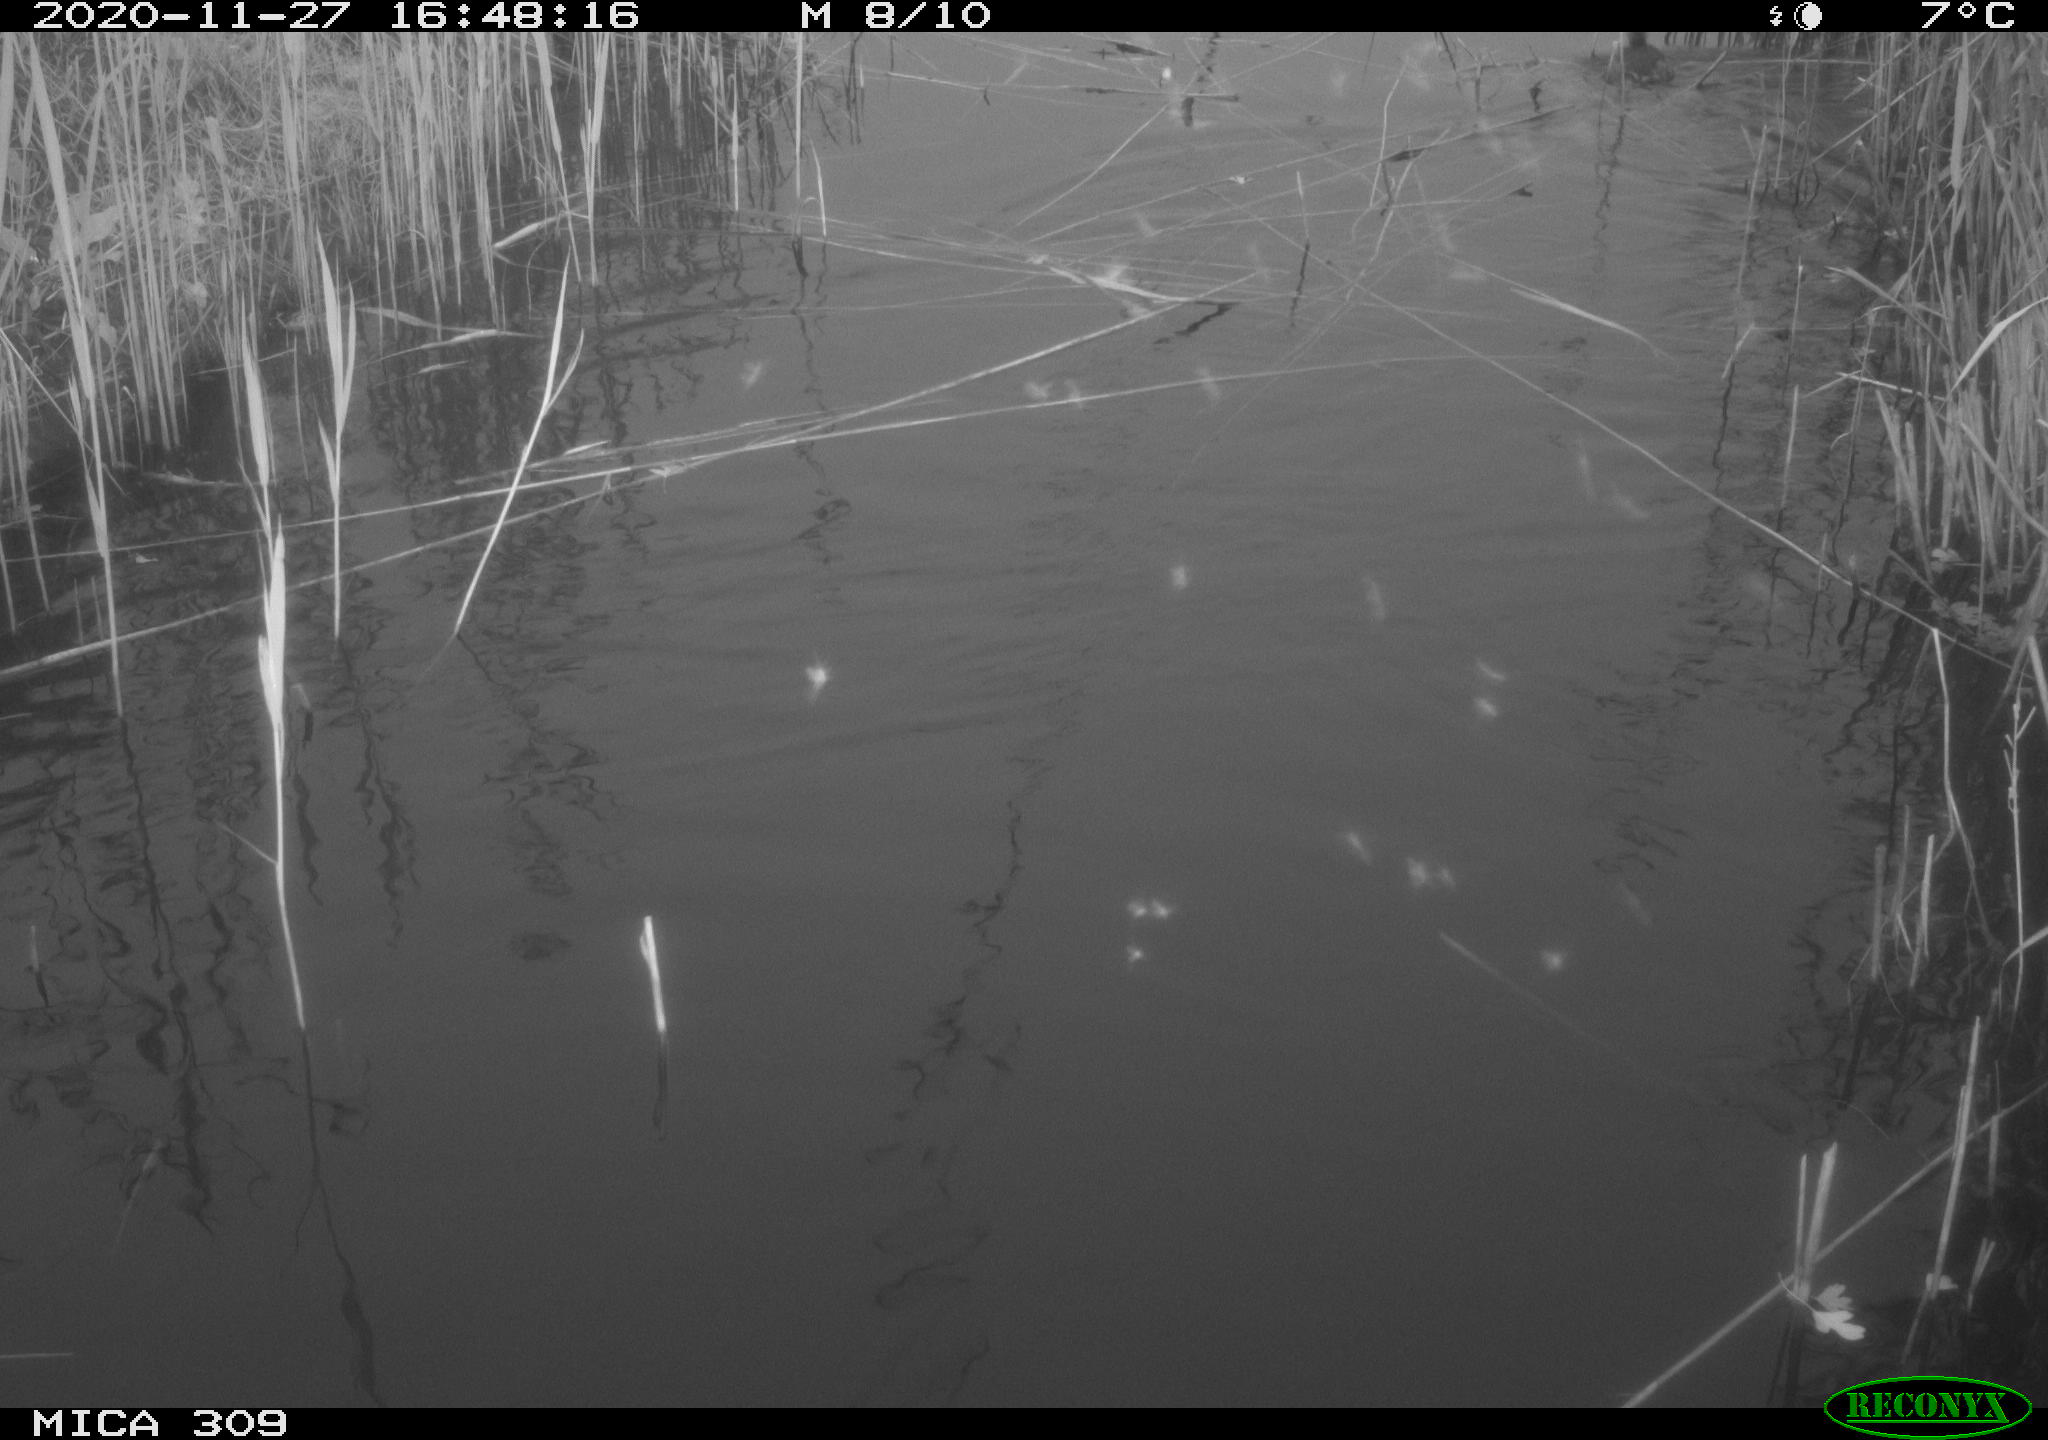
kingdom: Animalia
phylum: Chordata
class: Aves
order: Podicipediformes
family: Podicipedidae
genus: Tachybaptus
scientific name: Tachybaptus ruficollis
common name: Little grebe
